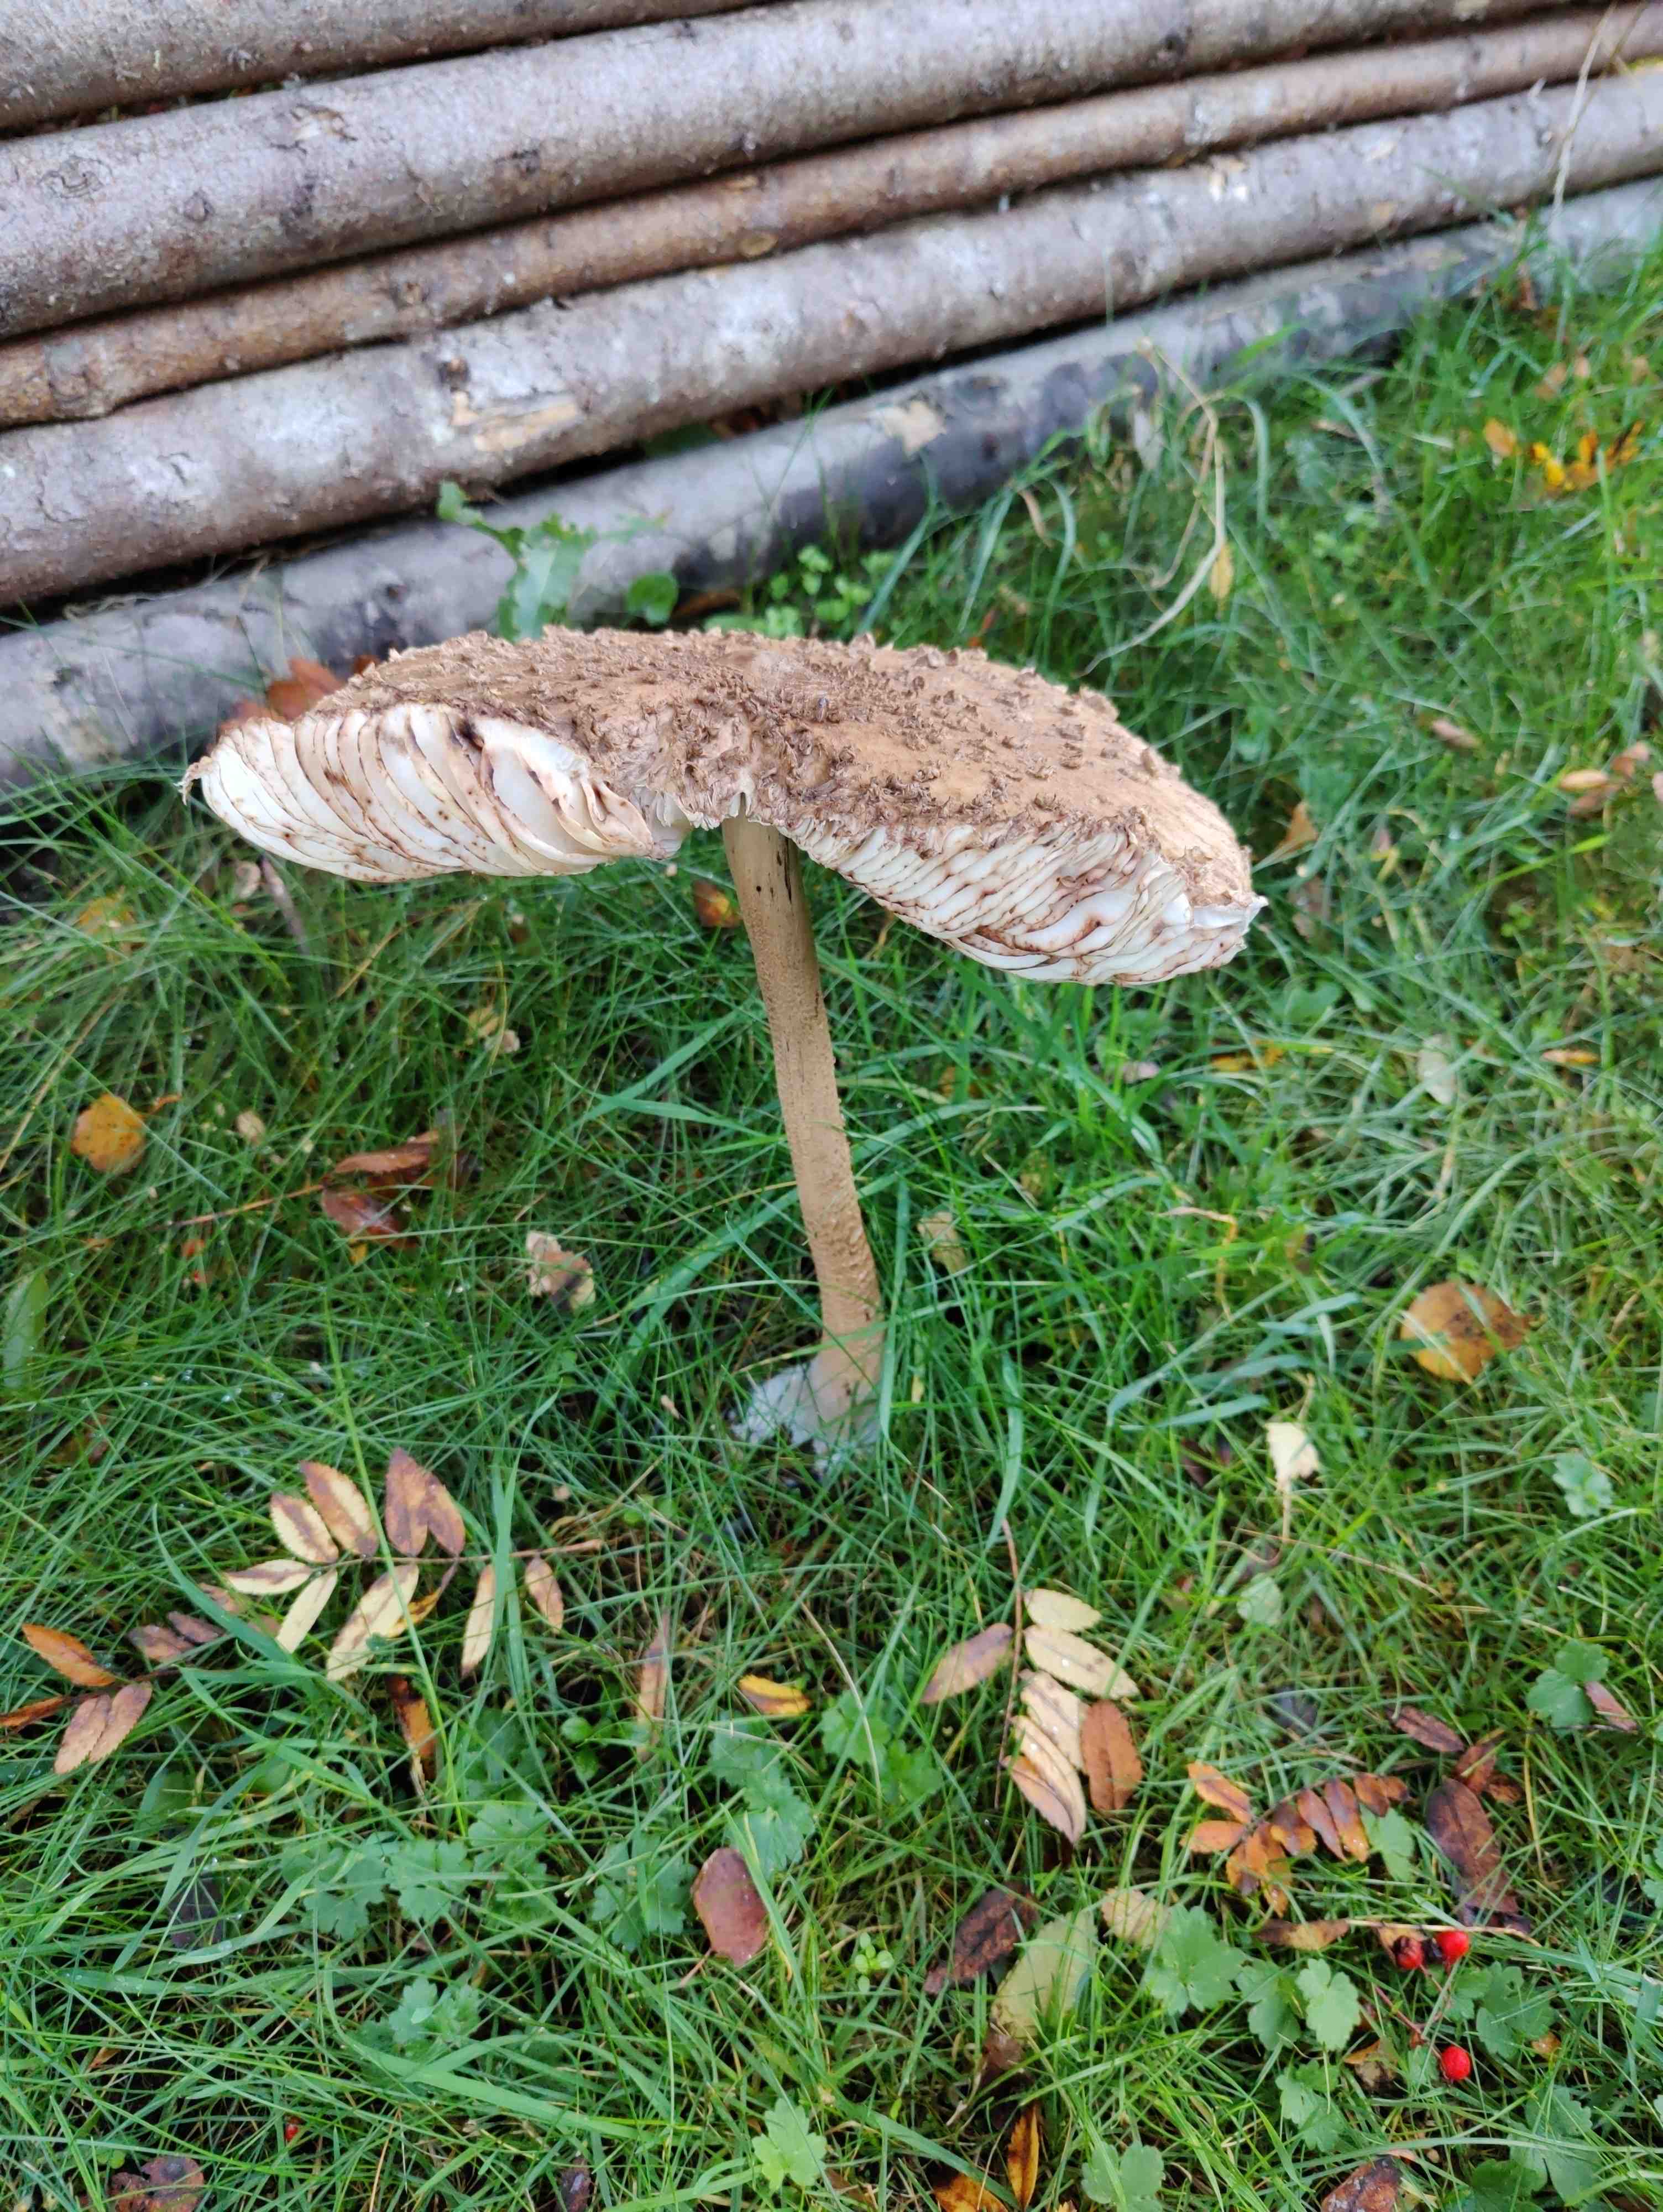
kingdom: Fungi
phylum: Basidiomycota
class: Agaricomycetes
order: Agaricales
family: Agaricaceae
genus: Macrolepiota
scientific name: Macrolepiota
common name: kæmpeparasolhat
